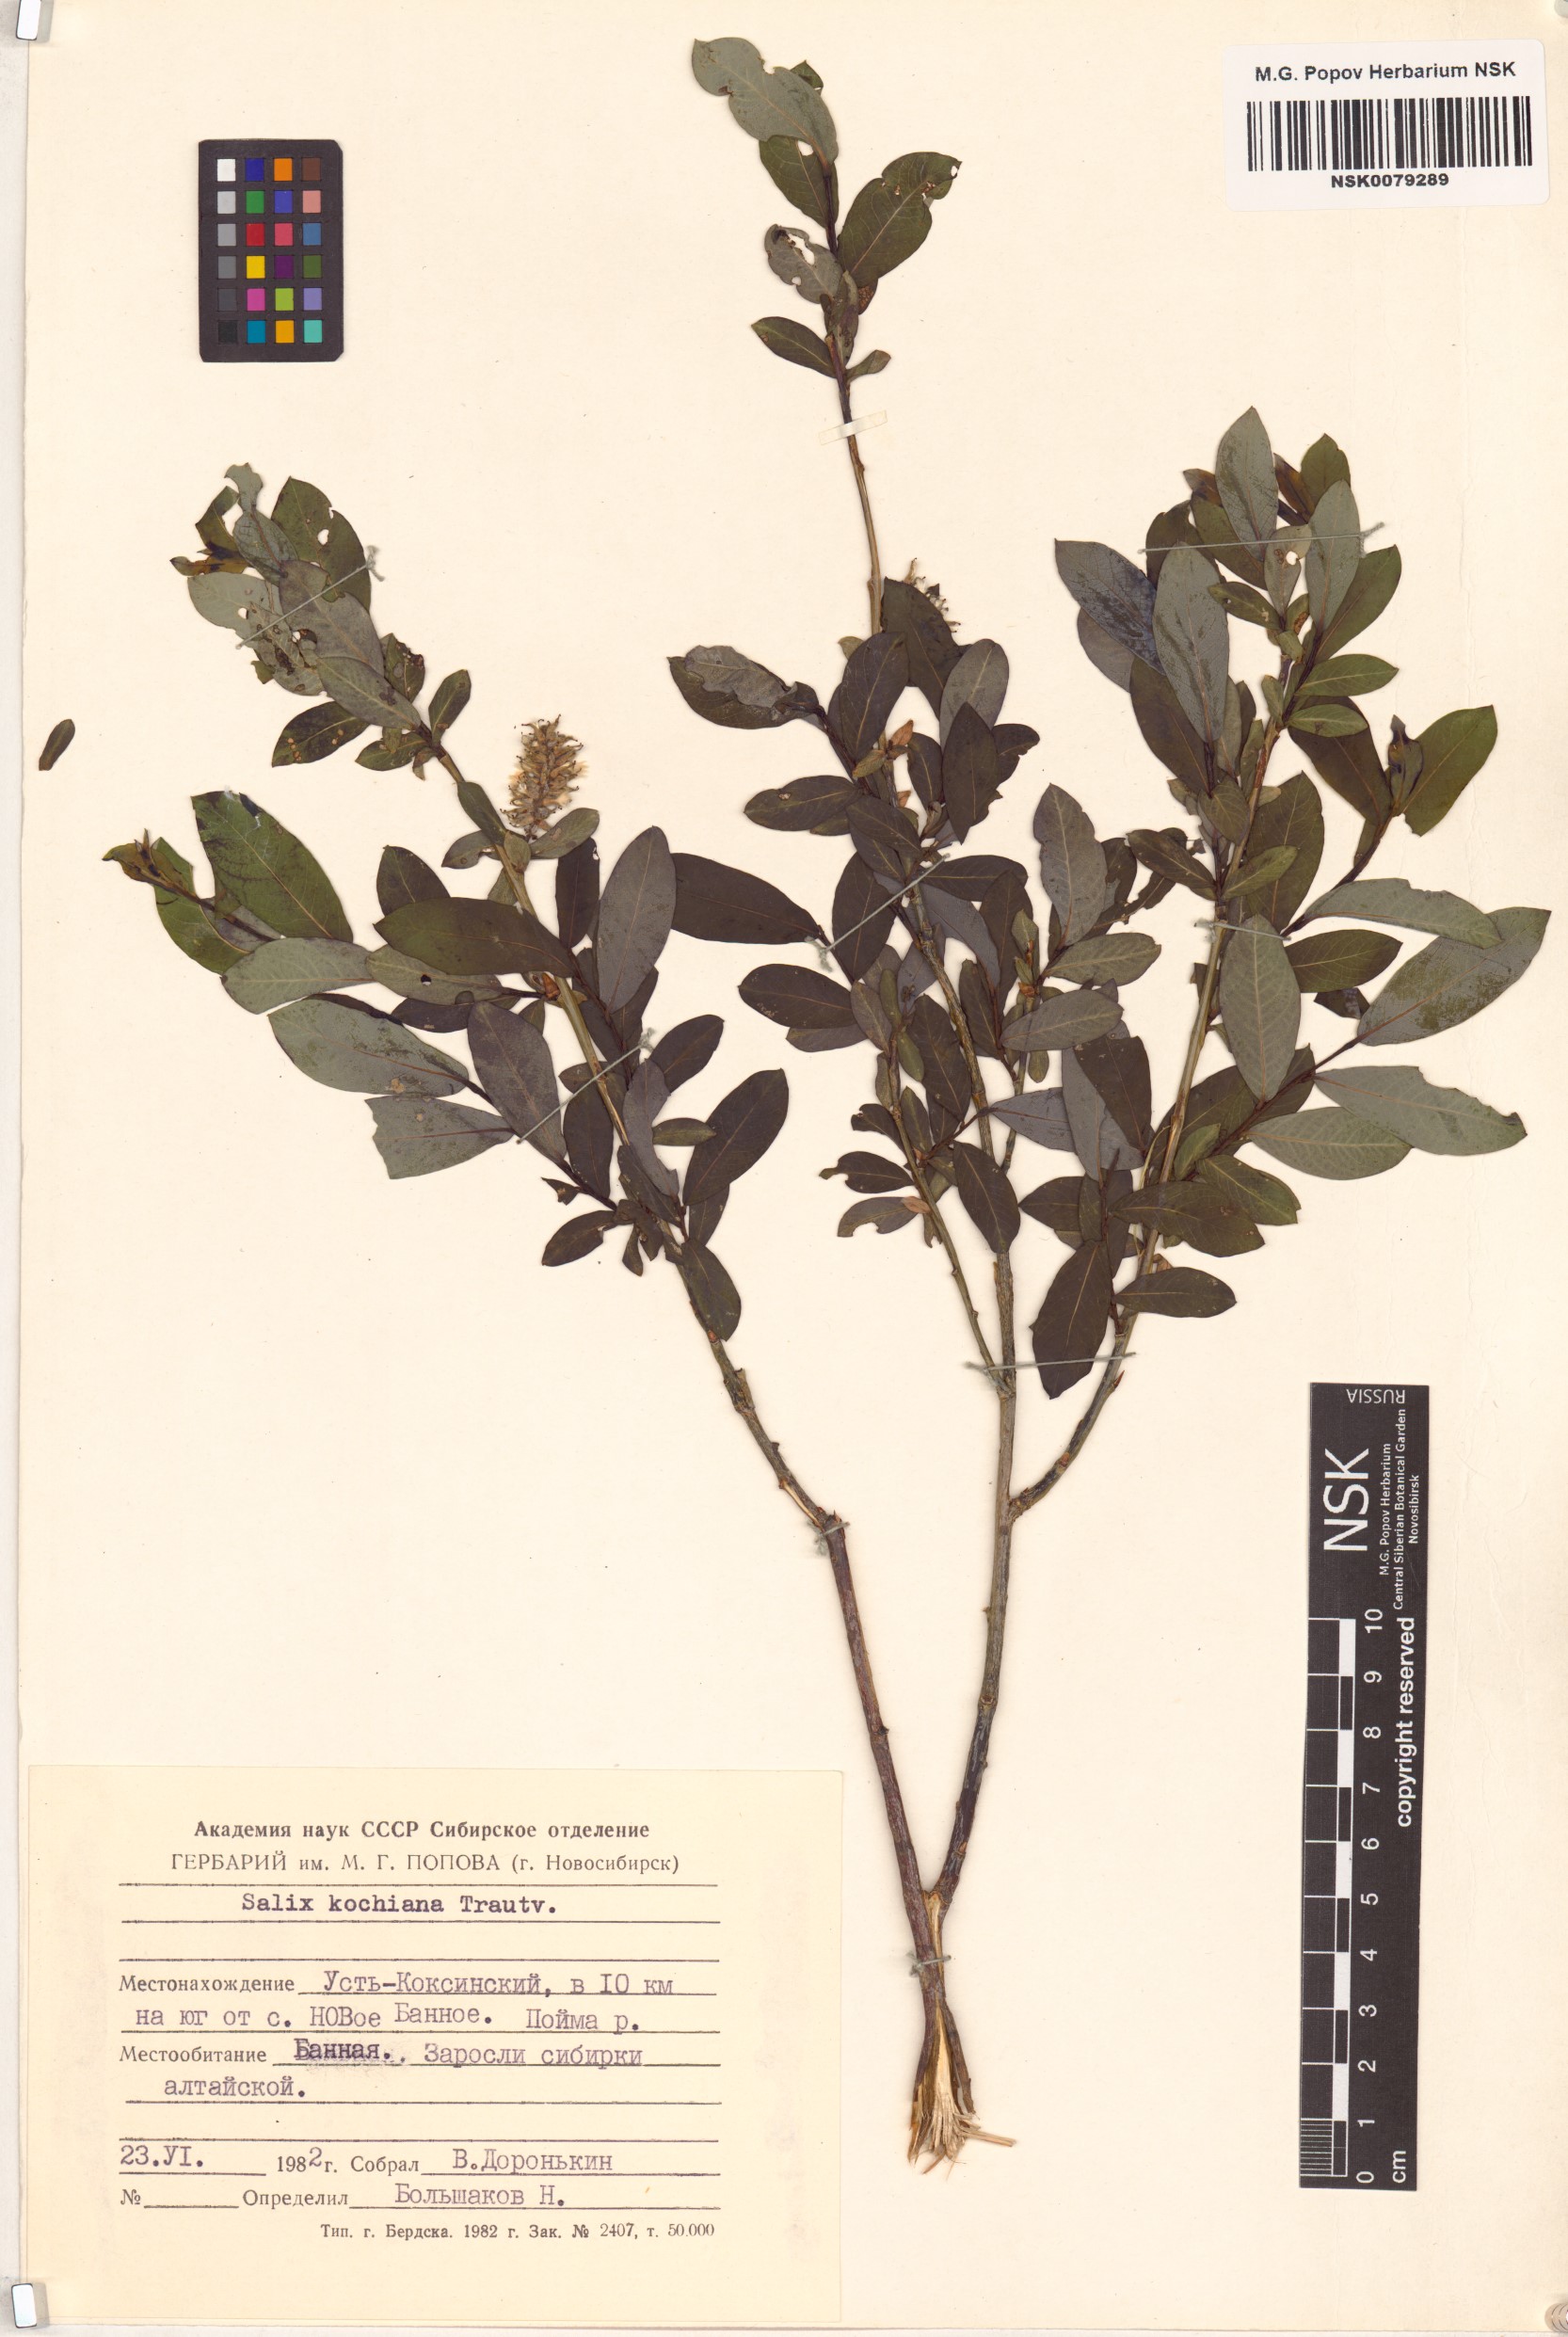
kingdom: Plantae
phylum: Tracheophyta
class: Magnoliopsida
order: Malpighiales
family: Salicaceae
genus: Salix
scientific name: Salix kochiana
